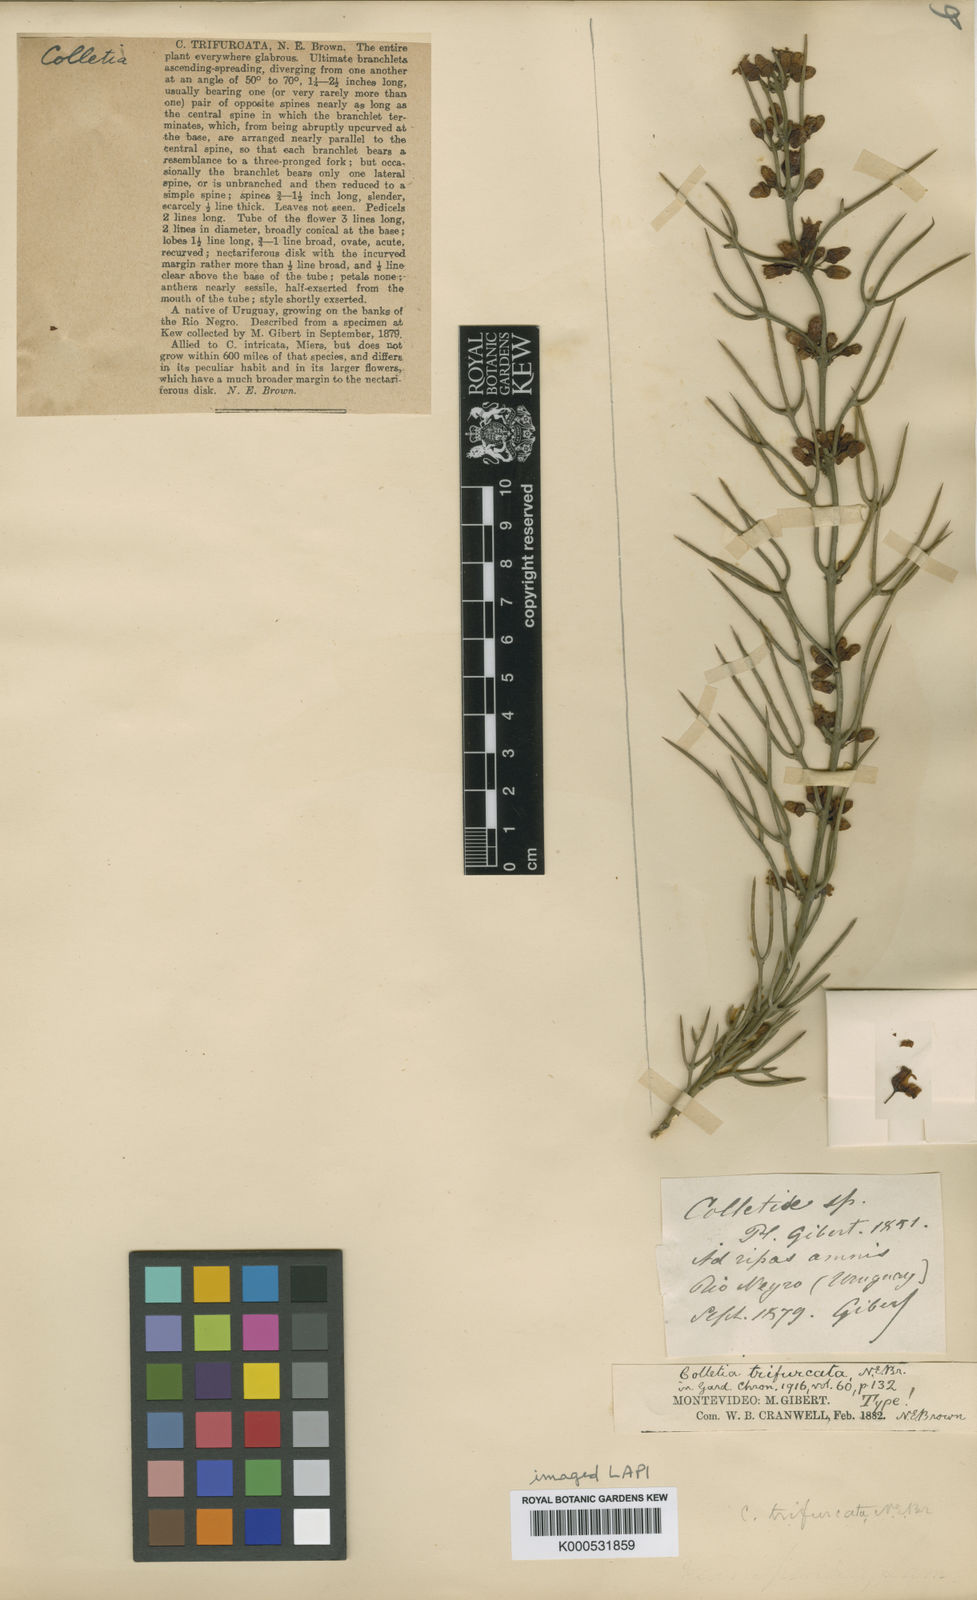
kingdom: Plantae
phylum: Tracheophyta
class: Magnoliopsida
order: Rosales
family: Rhamnaceae
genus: Colletia
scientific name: Colletia spinosissima
